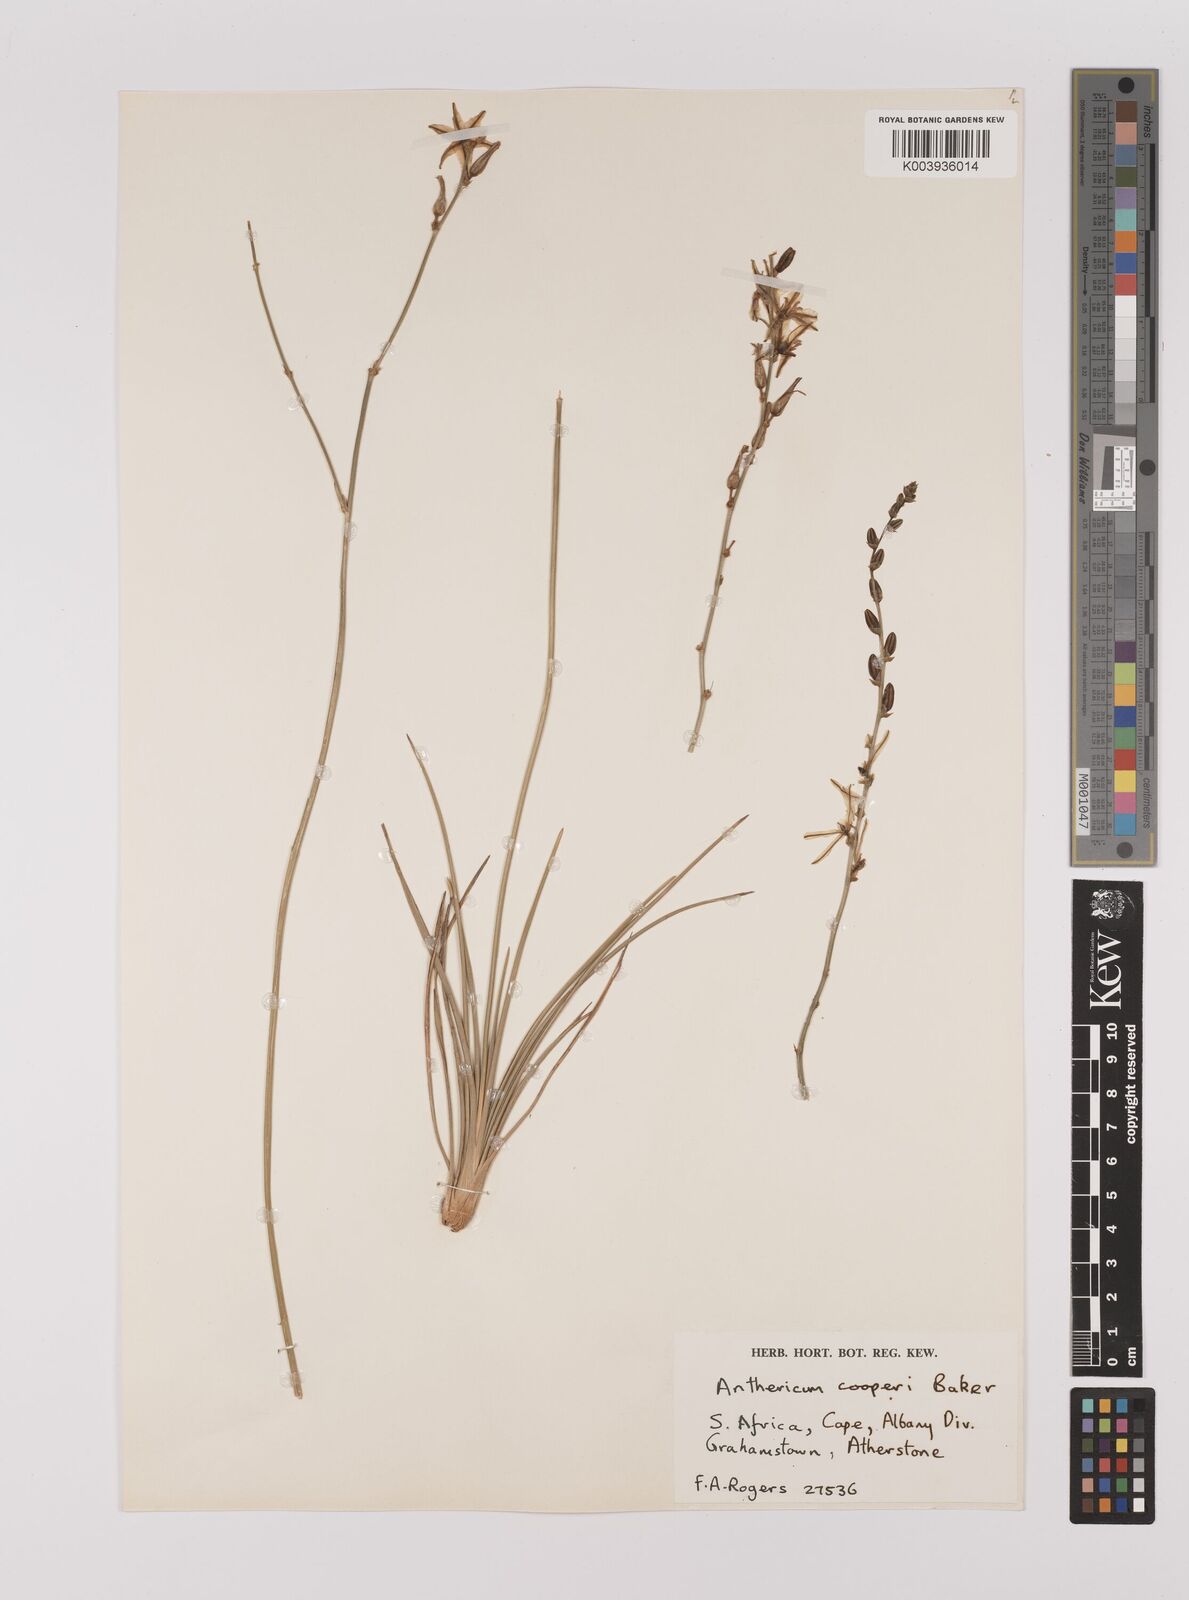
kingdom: Plantae
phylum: Tracheophyta
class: Liliopsida
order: Asparagales
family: Asparagaceae
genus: Chlorophytum
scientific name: Chlorophytum cooperi
